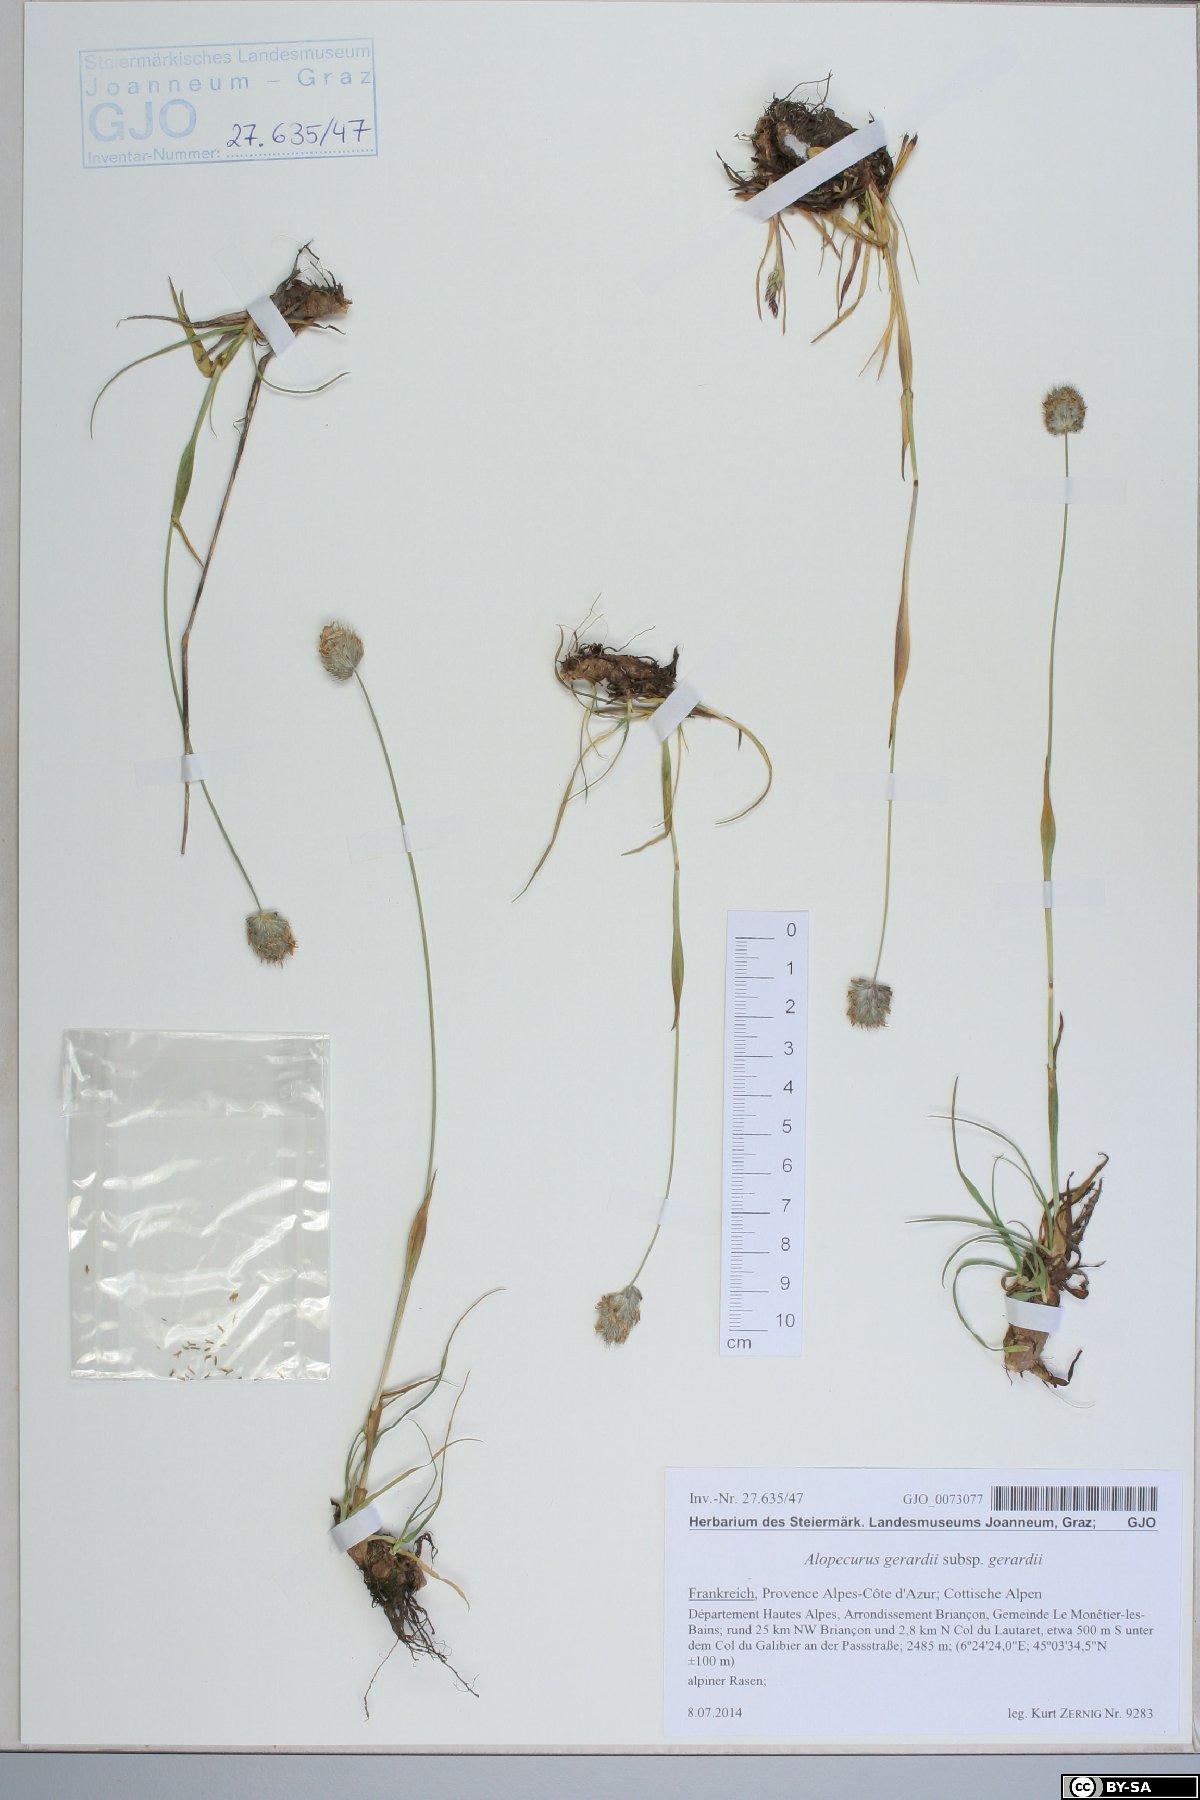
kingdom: Plantae
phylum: Tracheophyta
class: Liliopsida
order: Poales
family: Poaceae
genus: Alopecurus
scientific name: Alopecurus gerardii
